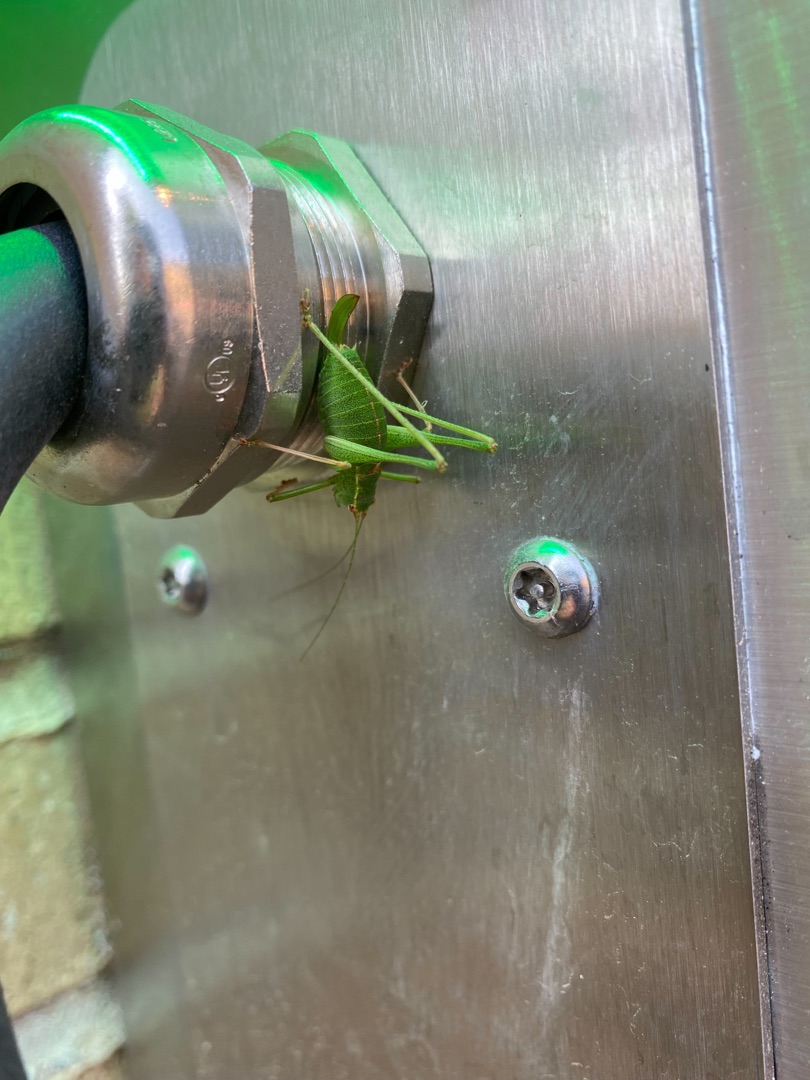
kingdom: Animalia
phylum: Arthropoda
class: Insecta
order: Orthoptera
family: Tettigoniidae
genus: Leptophyes
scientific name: Leptophyes punctatissima
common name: Krumknivgræshoppe
